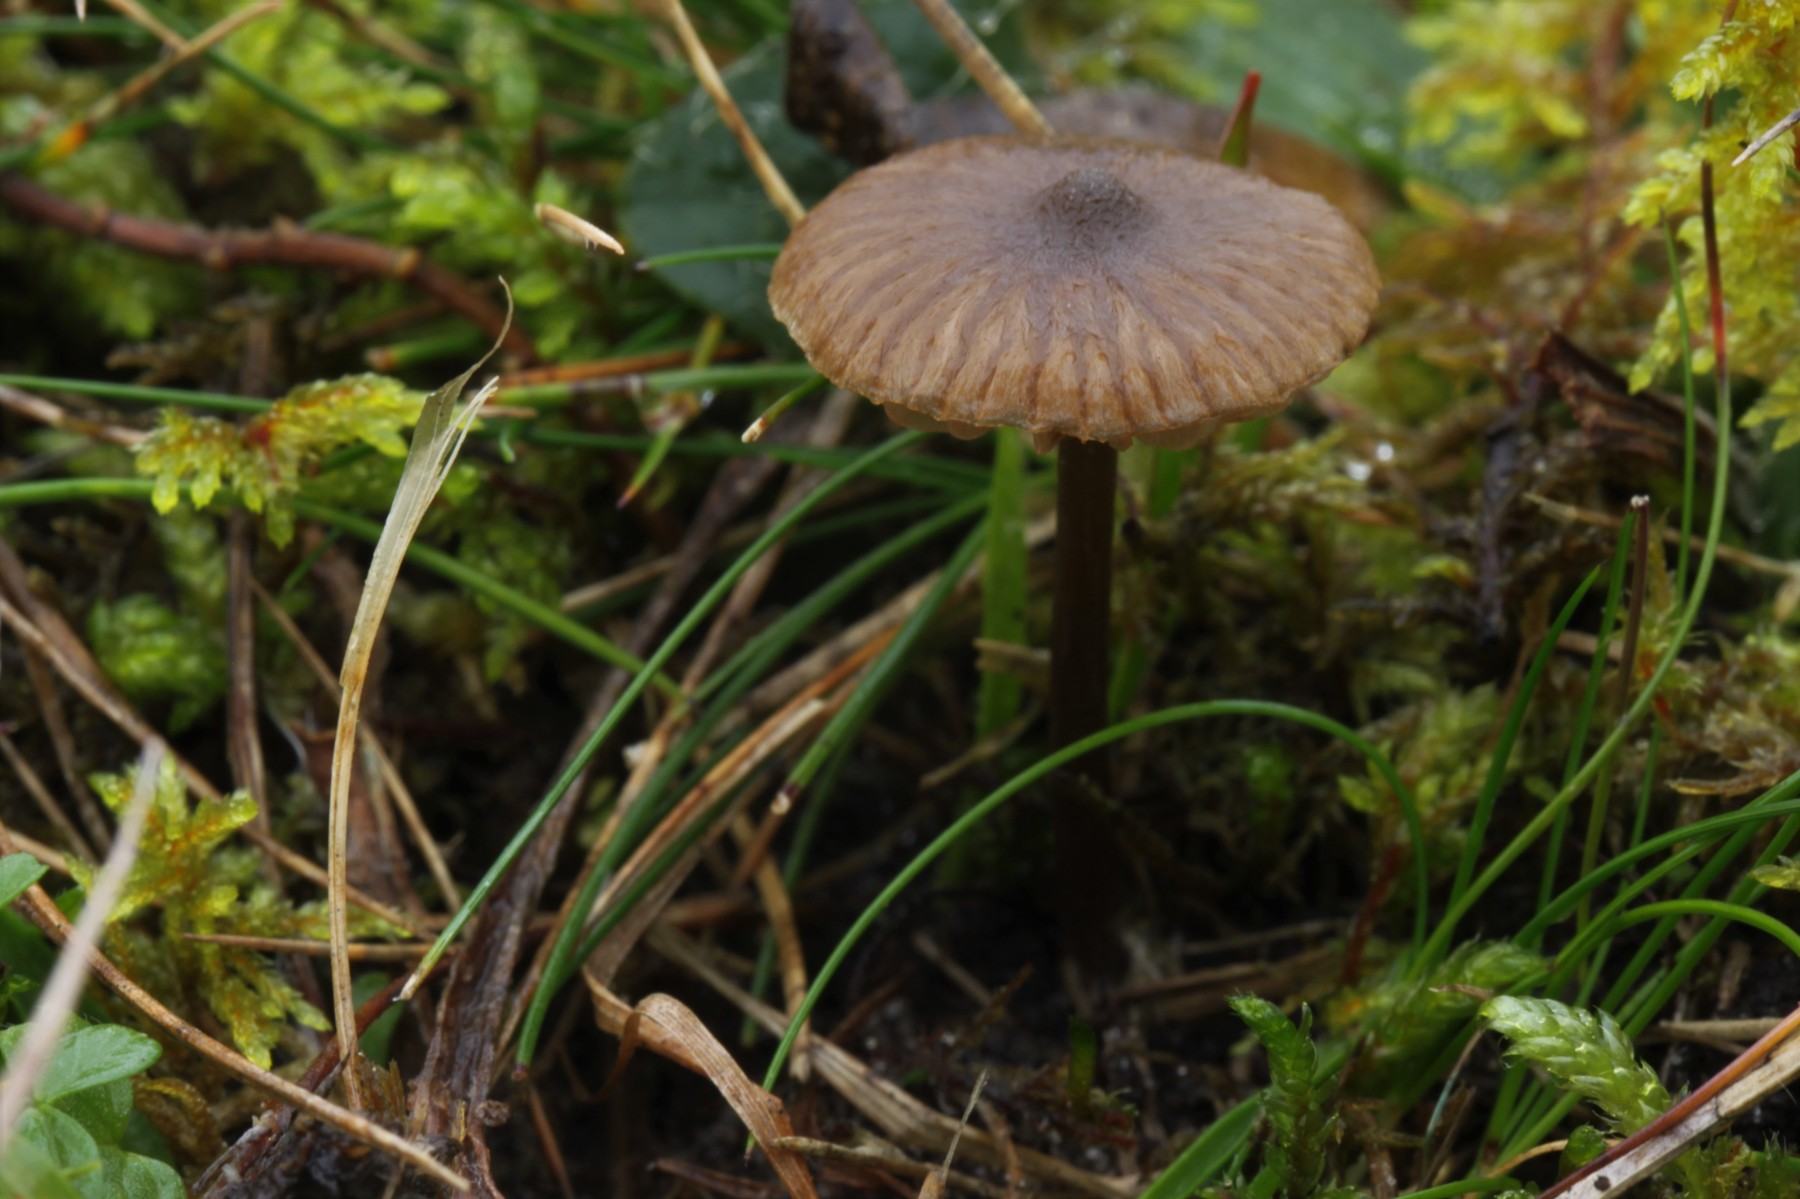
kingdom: Fungi
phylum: Basidiomycota
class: Agaricomycetes
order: Agaricales
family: Entolomataceae
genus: Entoloma
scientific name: Entoloma
